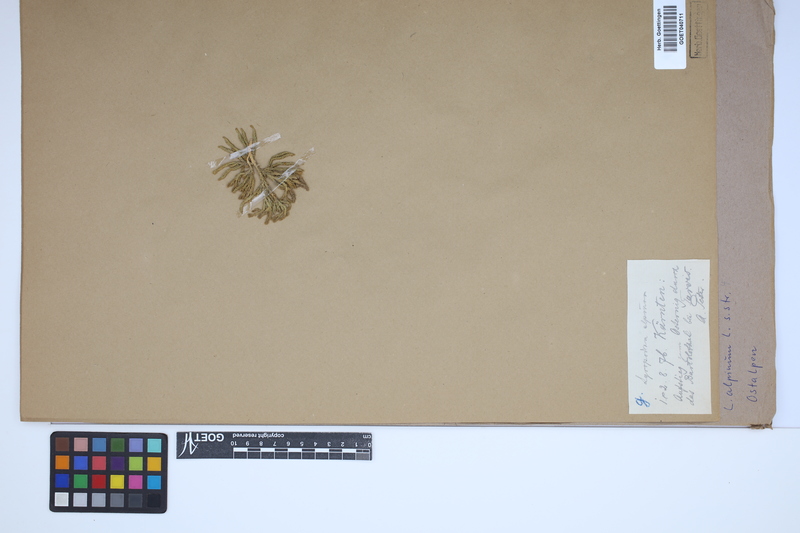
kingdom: Plantae
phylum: Tracheophyta
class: Lycopodiopsida
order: Lycopodiales
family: Lycopodiaceae
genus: Diphasiastrum
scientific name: Diphasiastrum alpinum
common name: Alpine clubmoss
